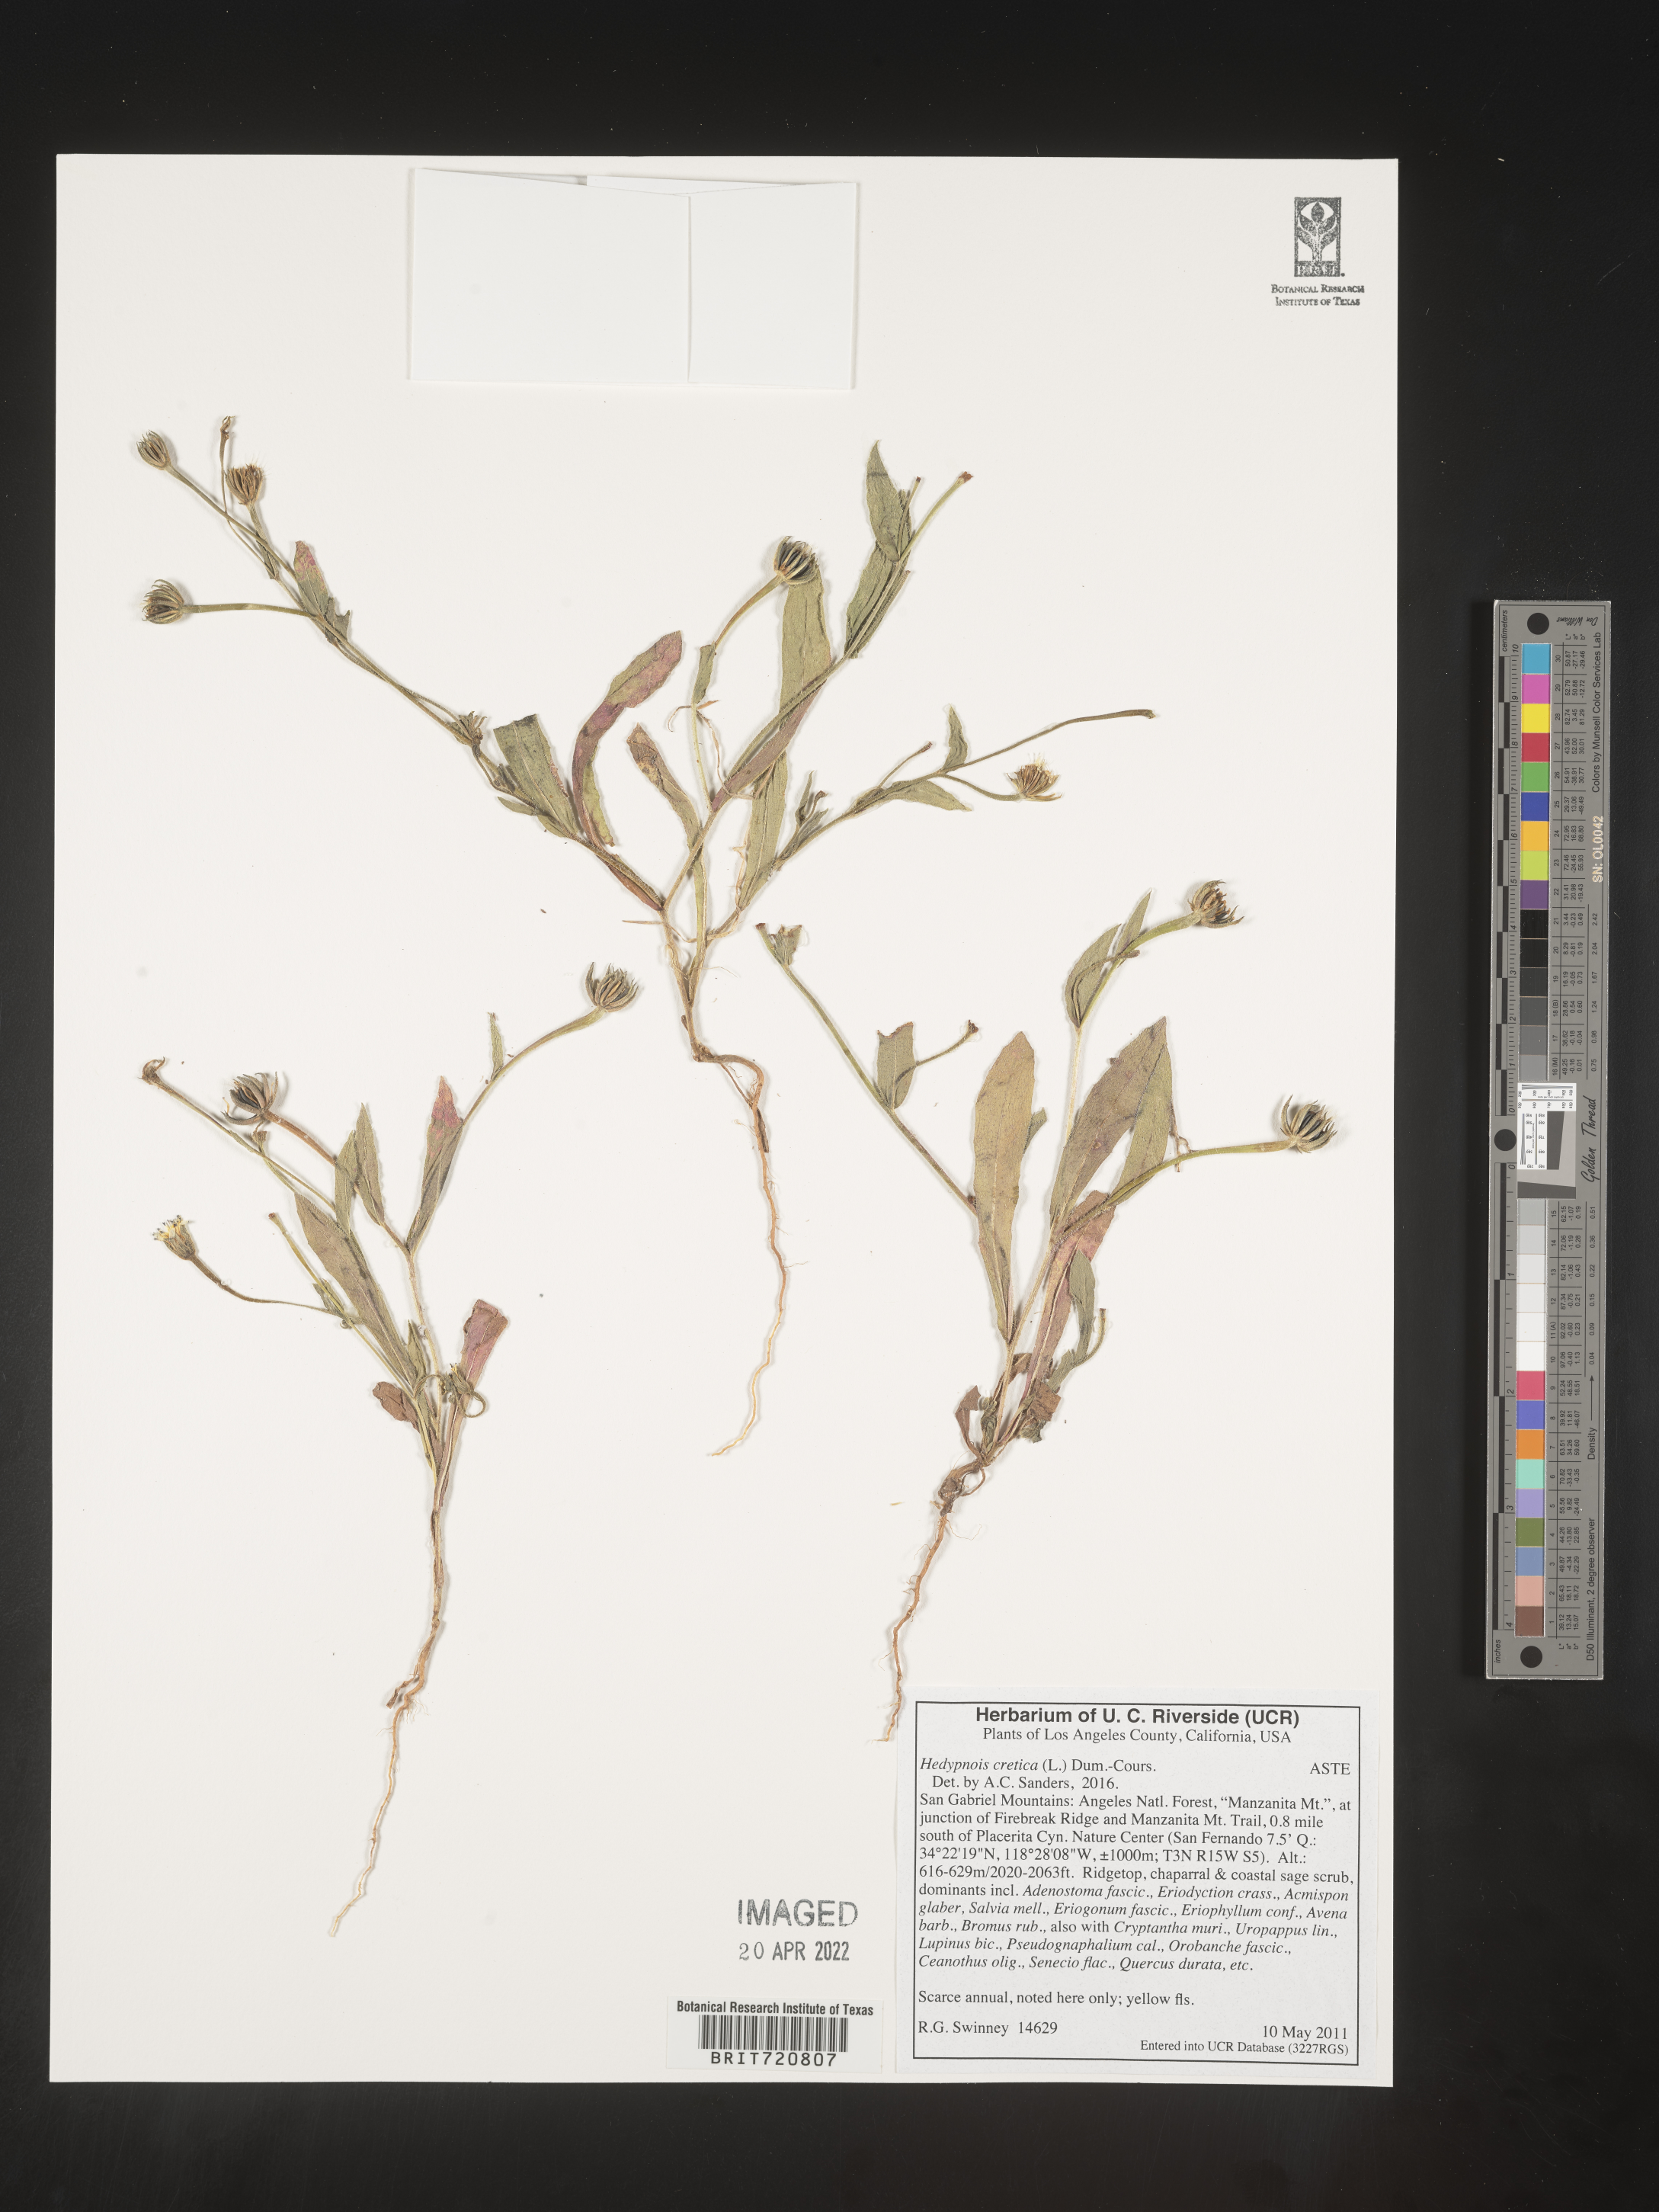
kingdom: Plantae
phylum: Tracheophyta
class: Magnoliopsida
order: Asterales
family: Asteraceae
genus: Hedypnois
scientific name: Hedypnois
